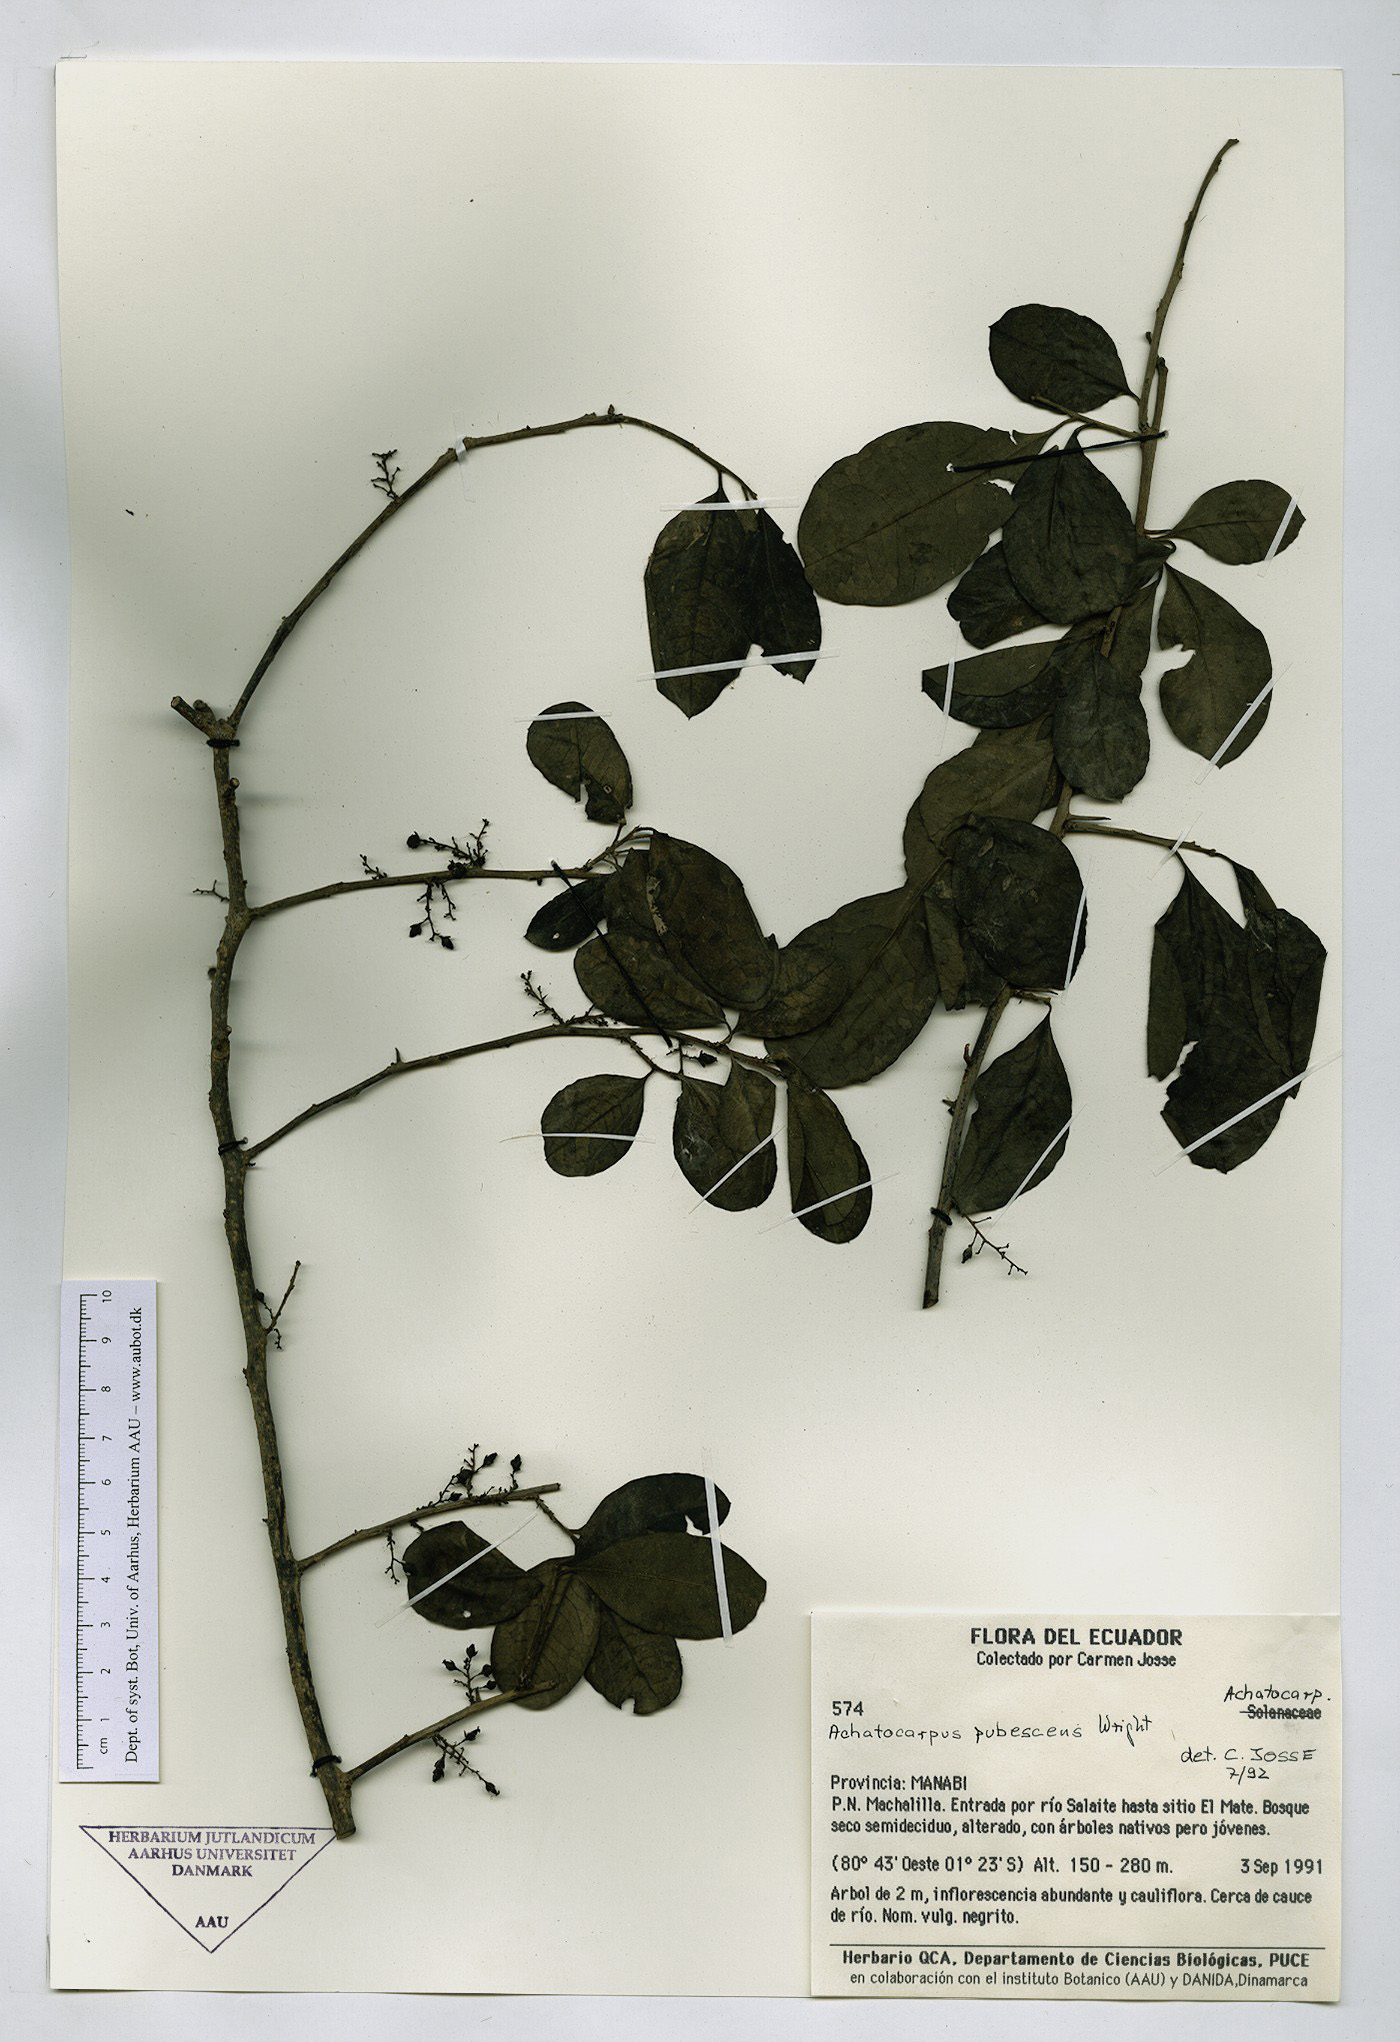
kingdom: Plantae
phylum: Tracheophyta
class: Magnoliopsida
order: Caryophyllales
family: Achatocarpaceae
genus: Achatocarpus
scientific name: Achatocarpus pubescens
